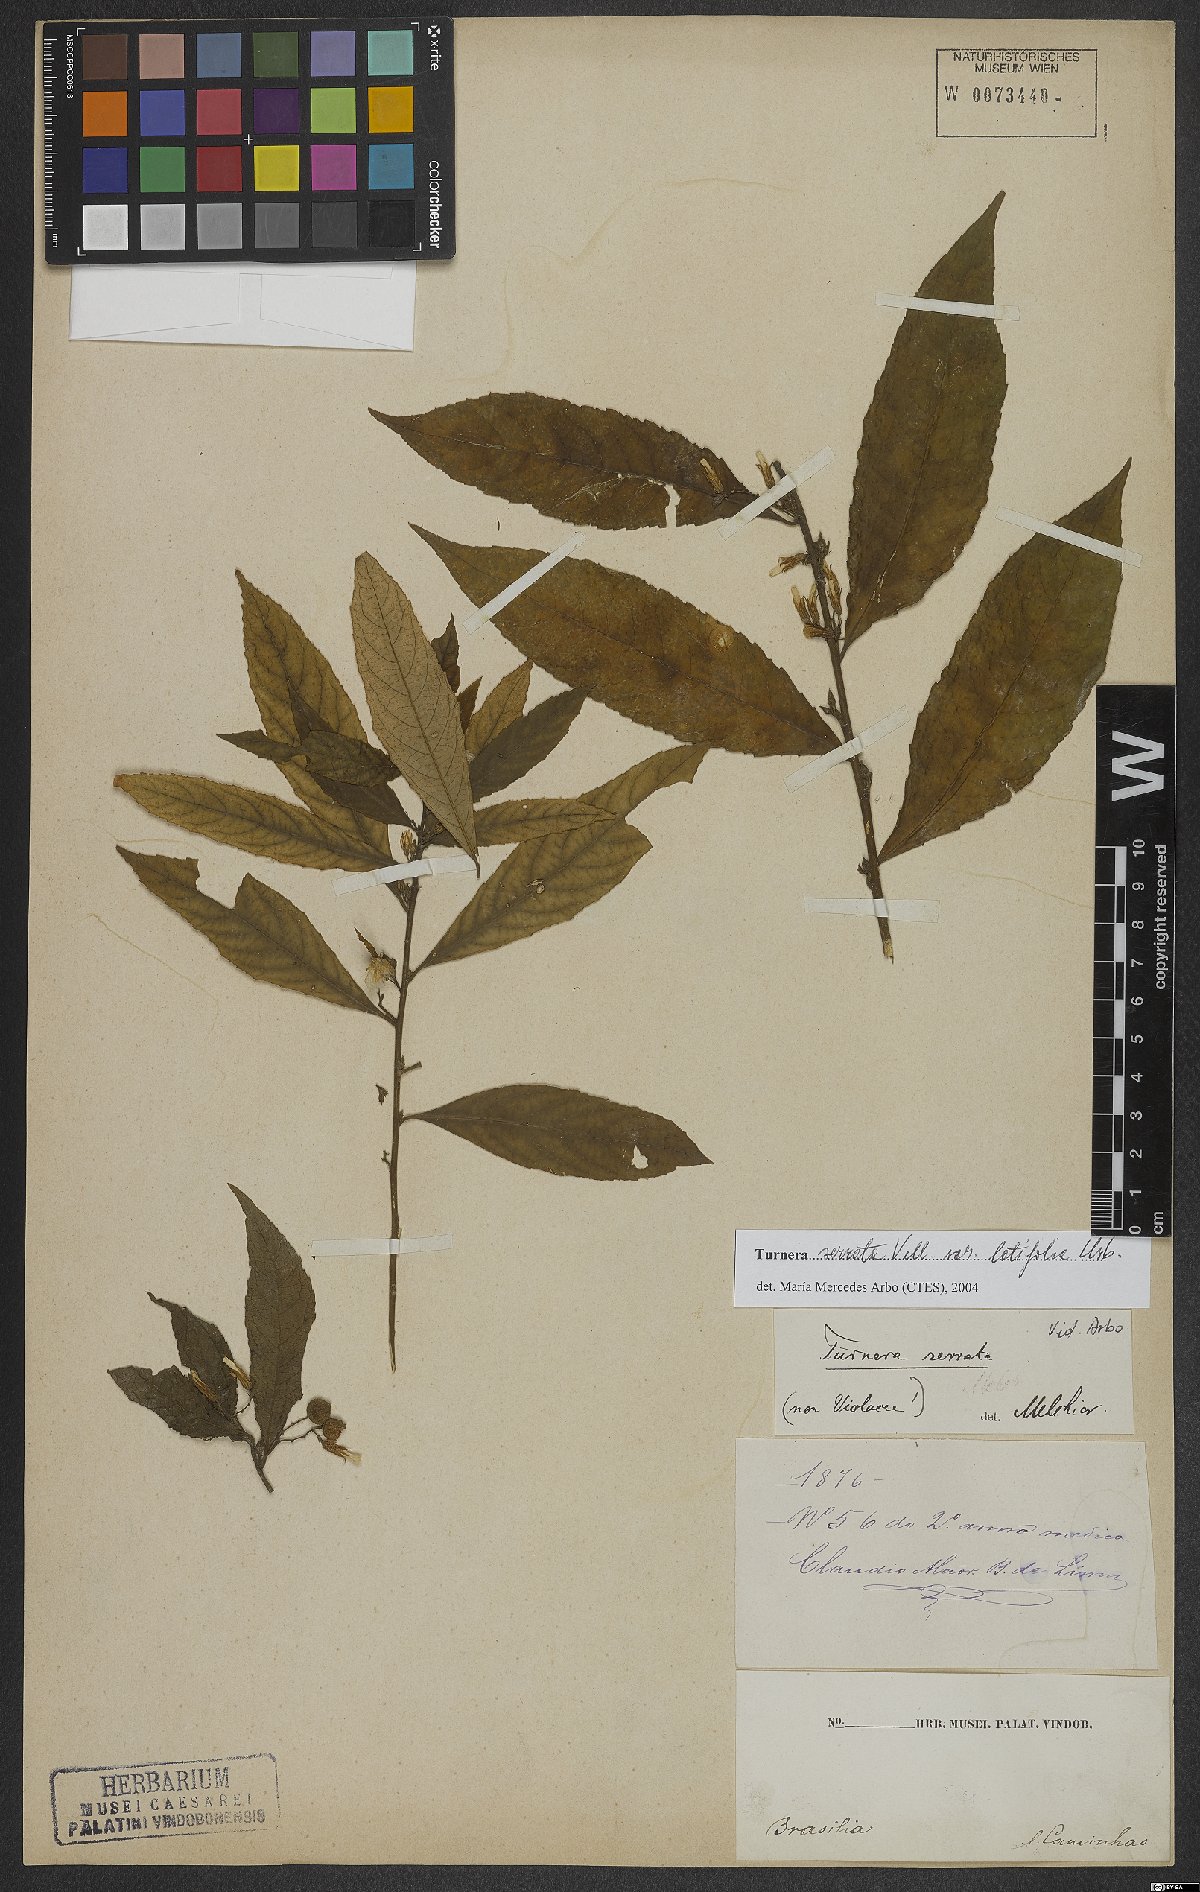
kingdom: Plantae
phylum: Tracheophyta
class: Magnoliopsida
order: Malpighiales
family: Turneraceae
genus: Turnera
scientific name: Turnera serrata
